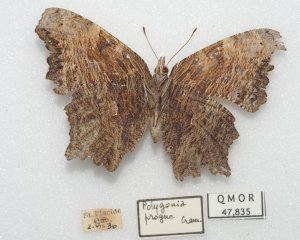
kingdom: Animalia
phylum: Arthropoda
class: Insecta
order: Lepidoptera
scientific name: Lepidoptera
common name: Butterflies
